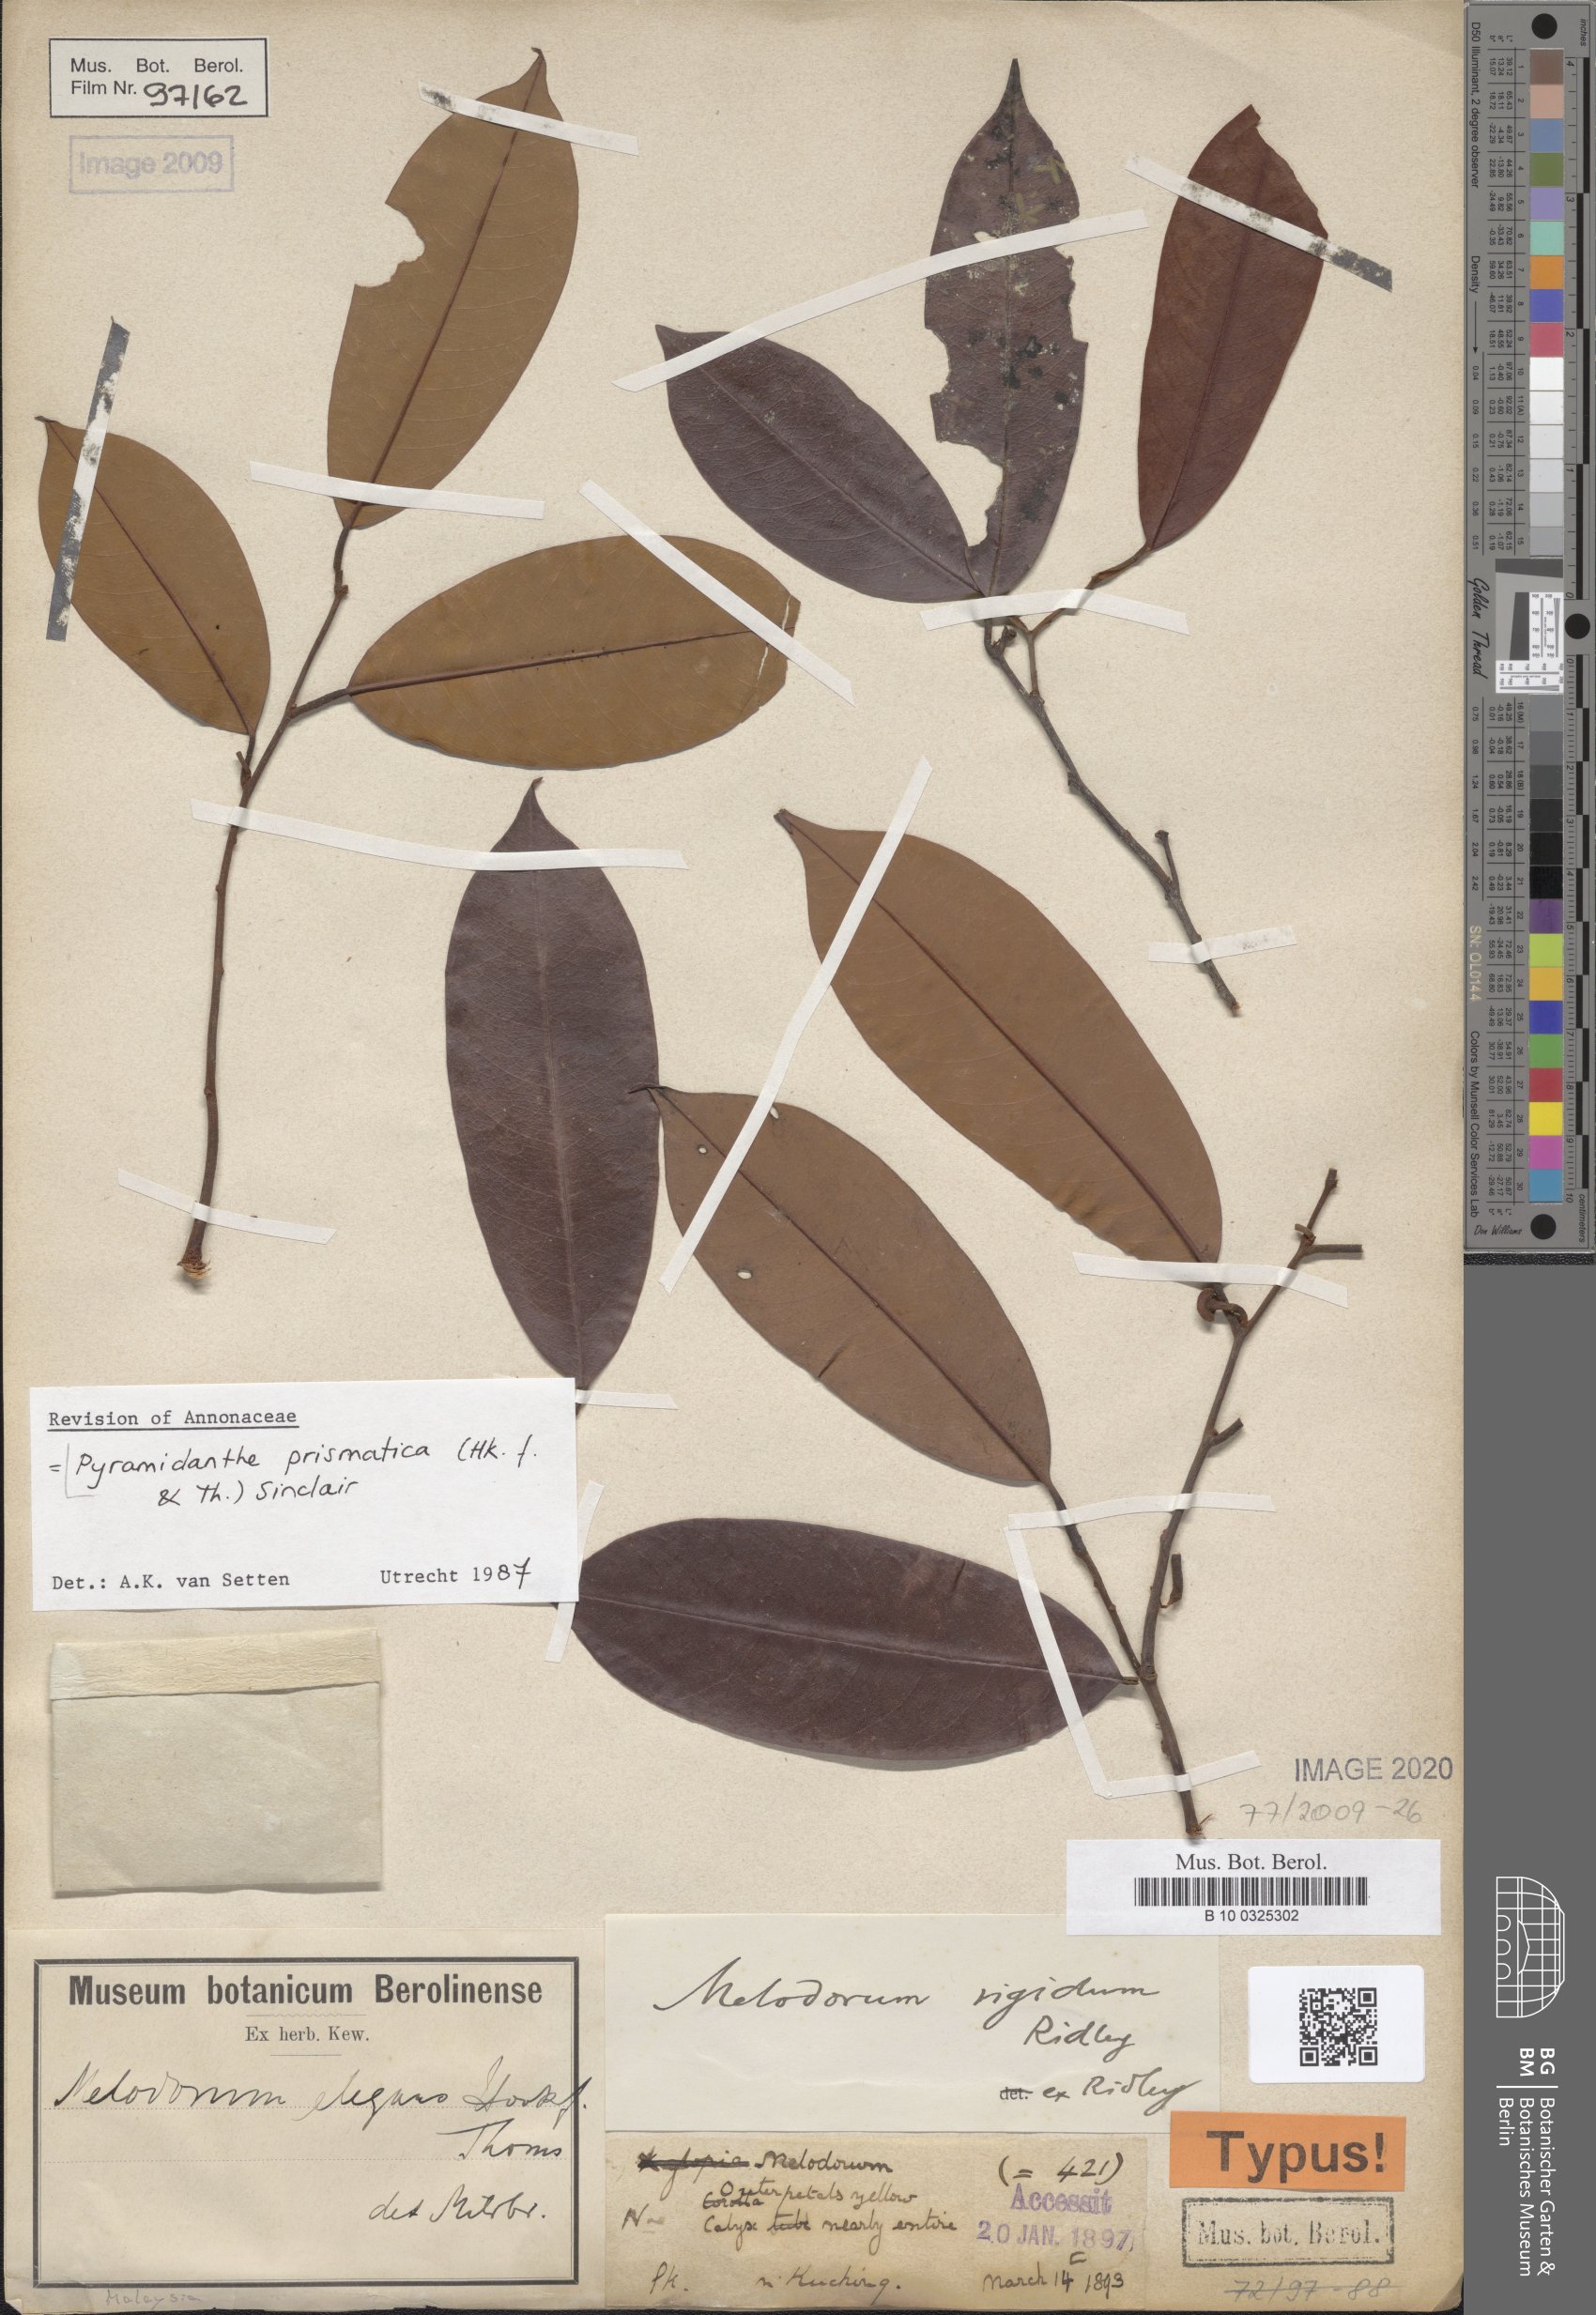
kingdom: Plantae
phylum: Tracheophyta
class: Magnoliopsida
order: Magnoliales
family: Annonaceae
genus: Pyramidanthe
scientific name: Pyramidanthe prismatica
